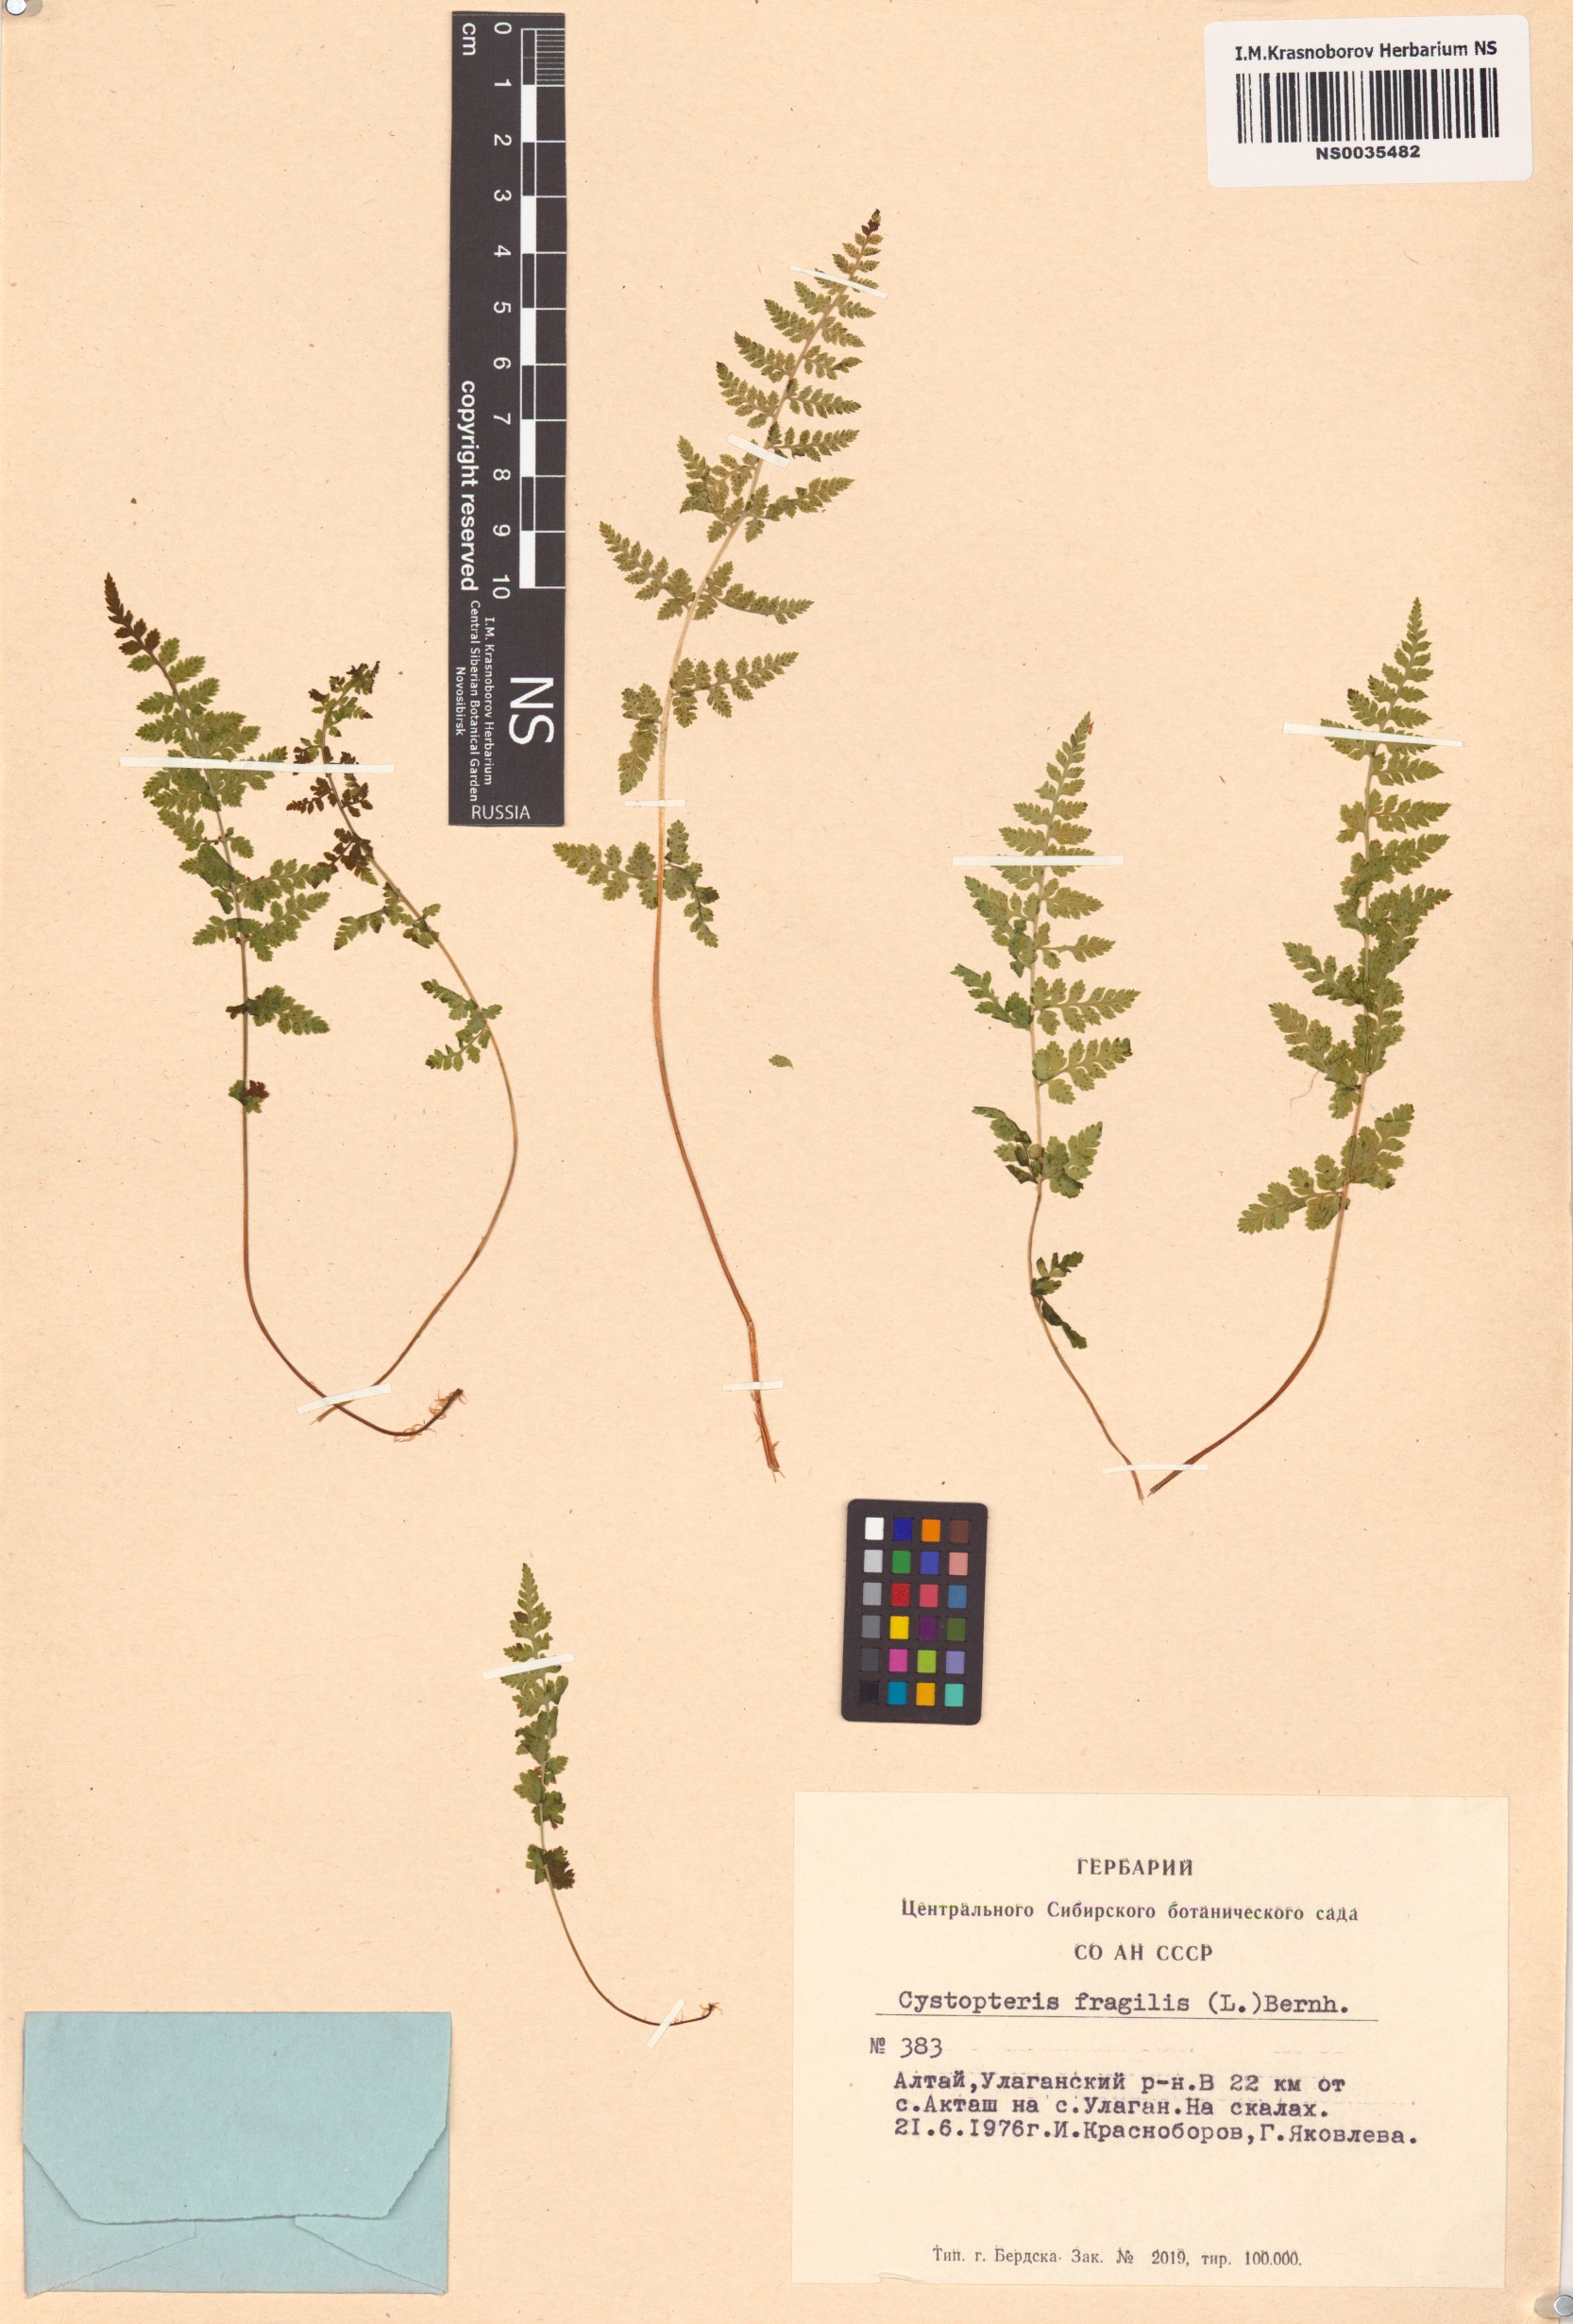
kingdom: Plantae
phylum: Tracheophyta
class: Polypodiopsida
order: Polypodiales
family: Cystopteridaceae
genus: Cystopteris
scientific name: Cystopteris fragilis
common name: Brittle bladder fern
